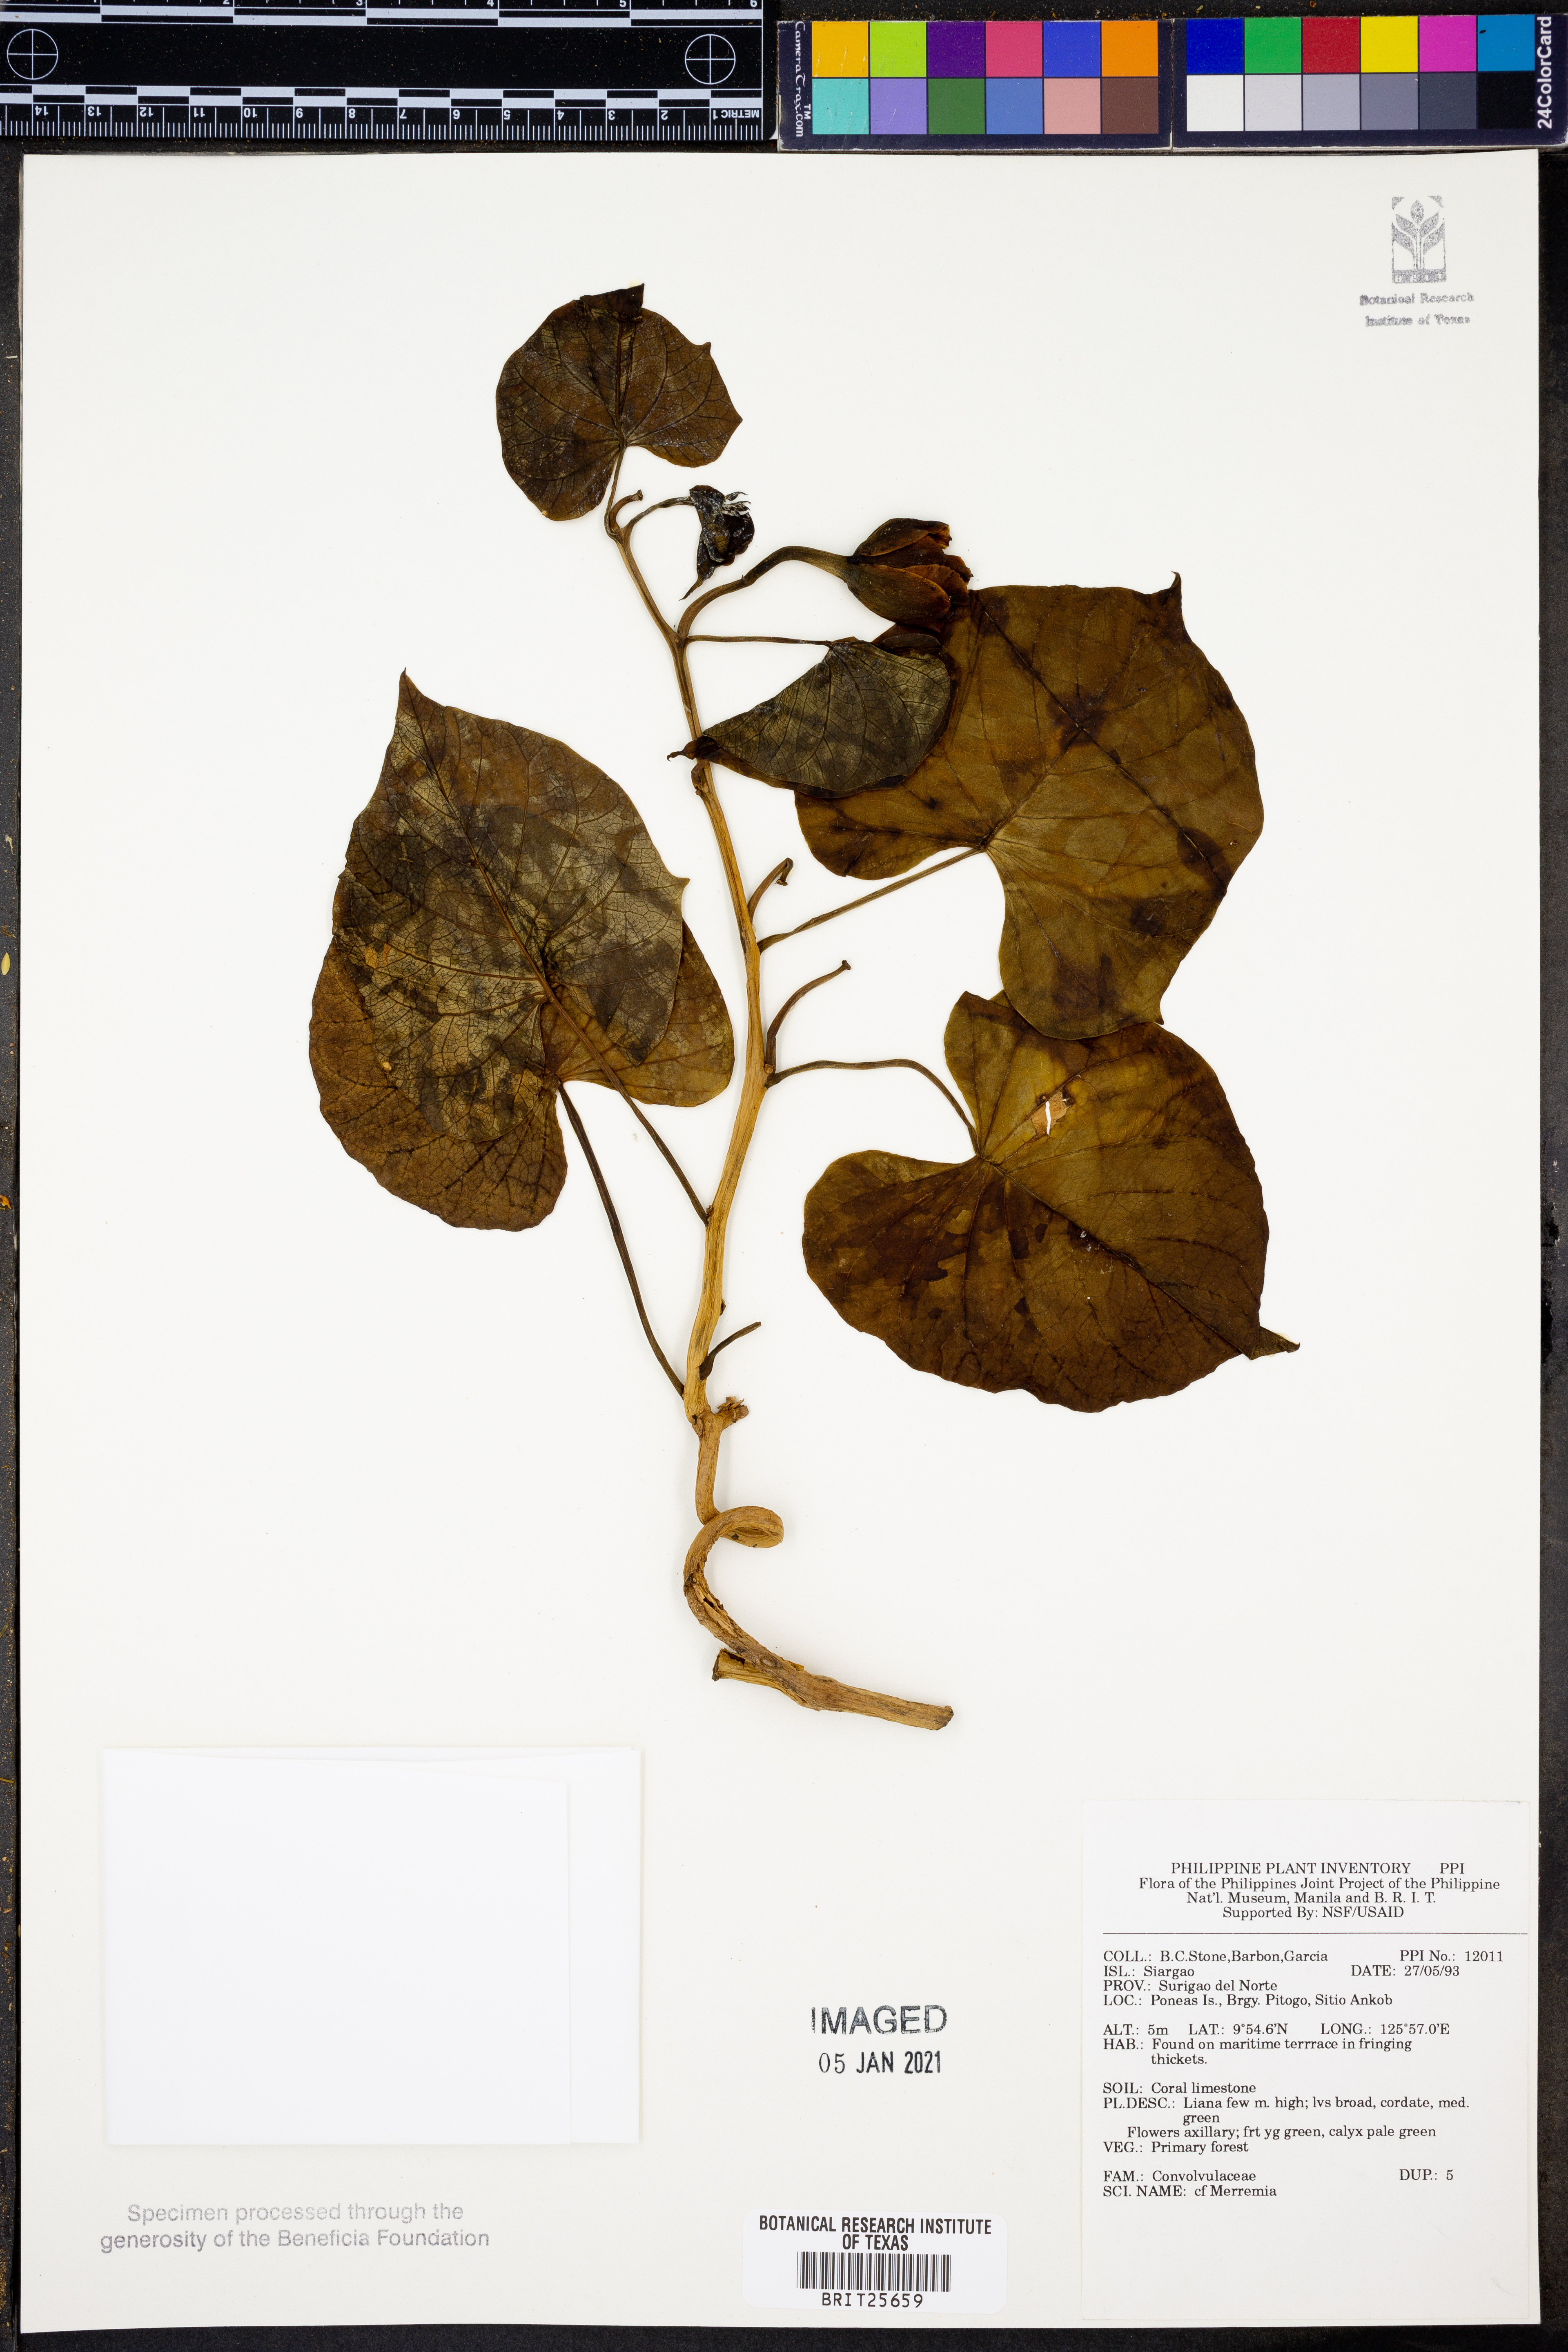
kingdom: Plantae
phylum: Tracheophyta
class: Magnoliopsida
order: Solanales
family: Convolvulaceae
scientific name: Convolvulaceae
